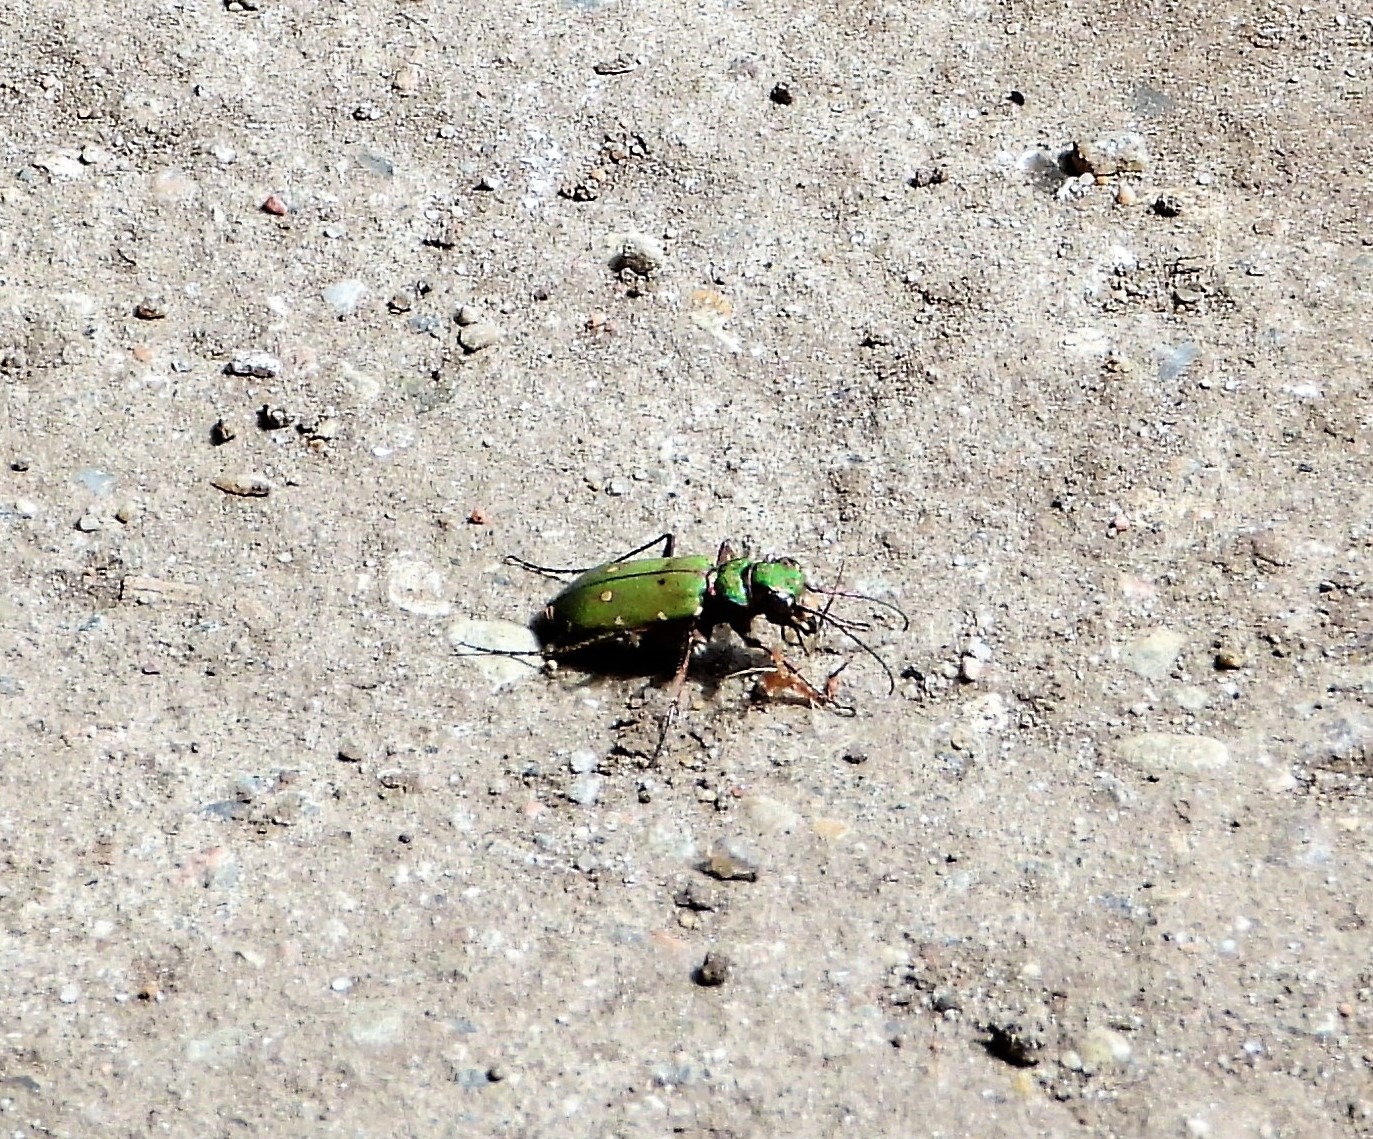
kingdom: Animalia
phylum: Arthropoda
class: Insecta
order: Coleoptera
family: Carabidae
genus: Cicindela
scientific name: Cicindela campestris
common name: Grøn sandspringer
